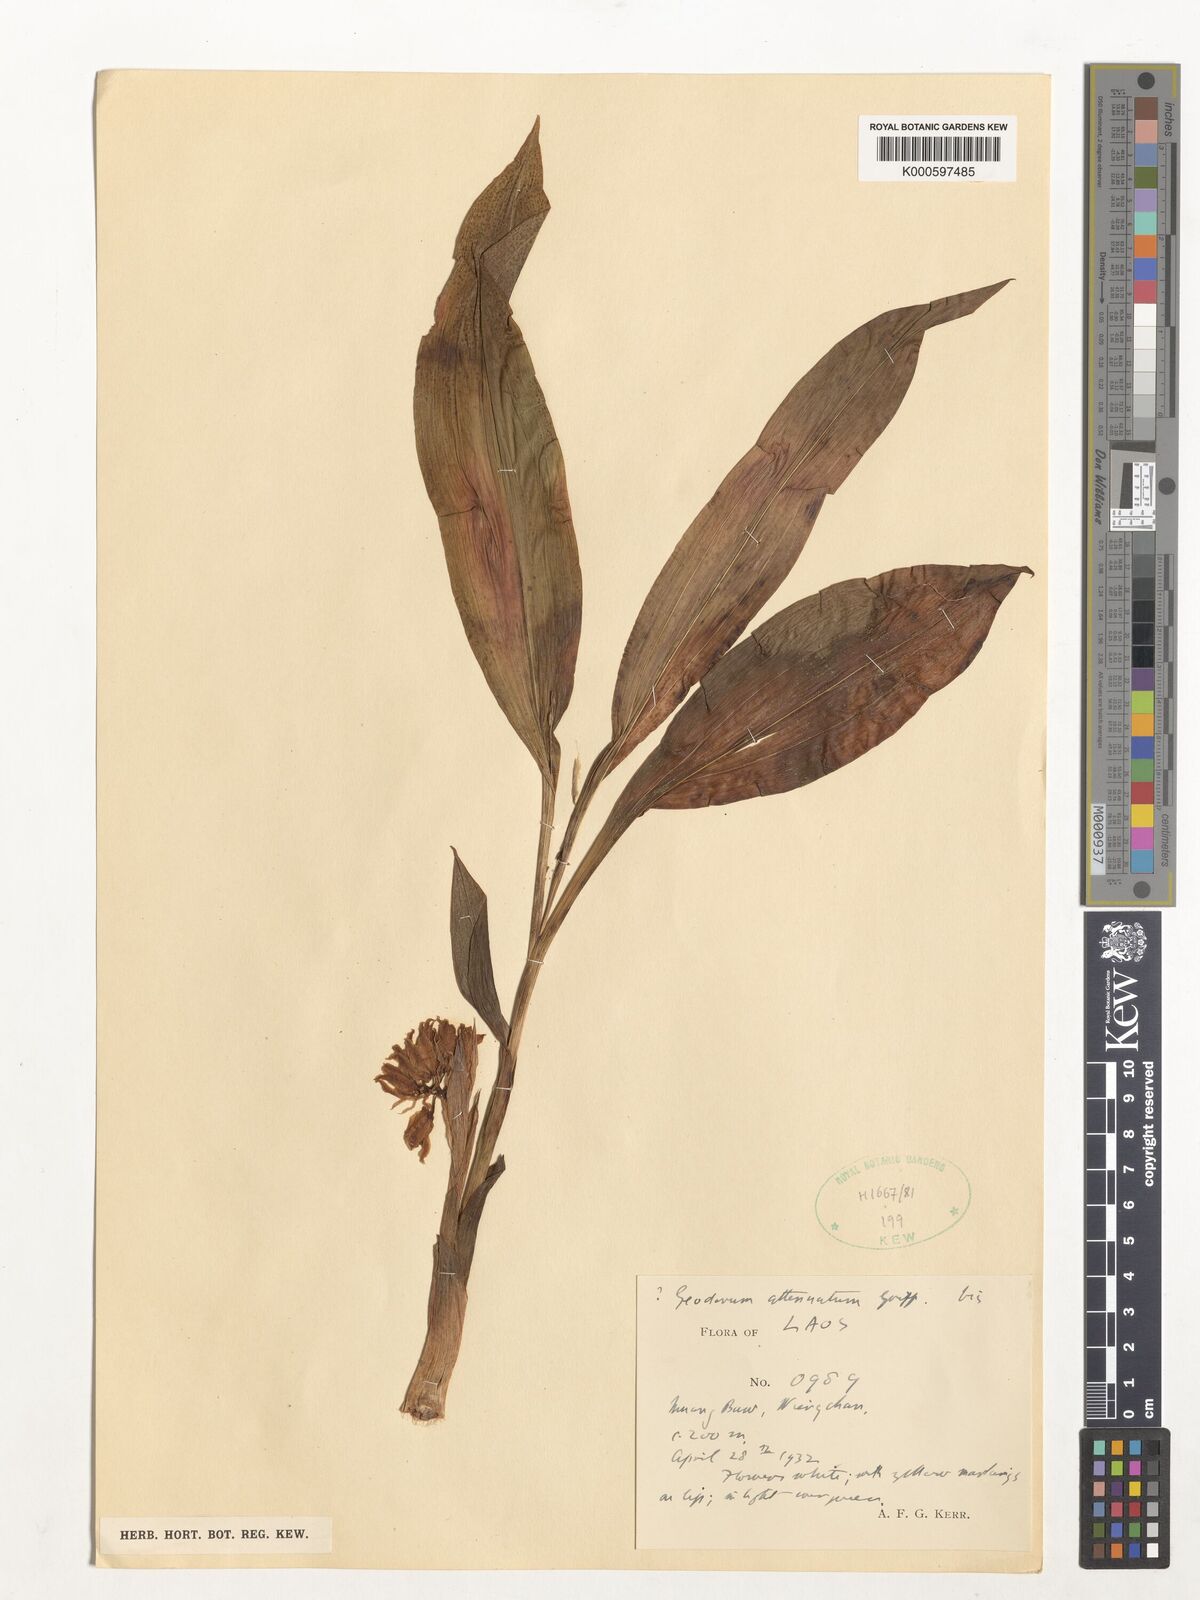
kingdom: Plantae
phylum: Tracheophyta
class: Liliopsida
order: Asparagales
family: Orchidaceae
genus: Eulophia
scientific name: Eulophia attenuata
